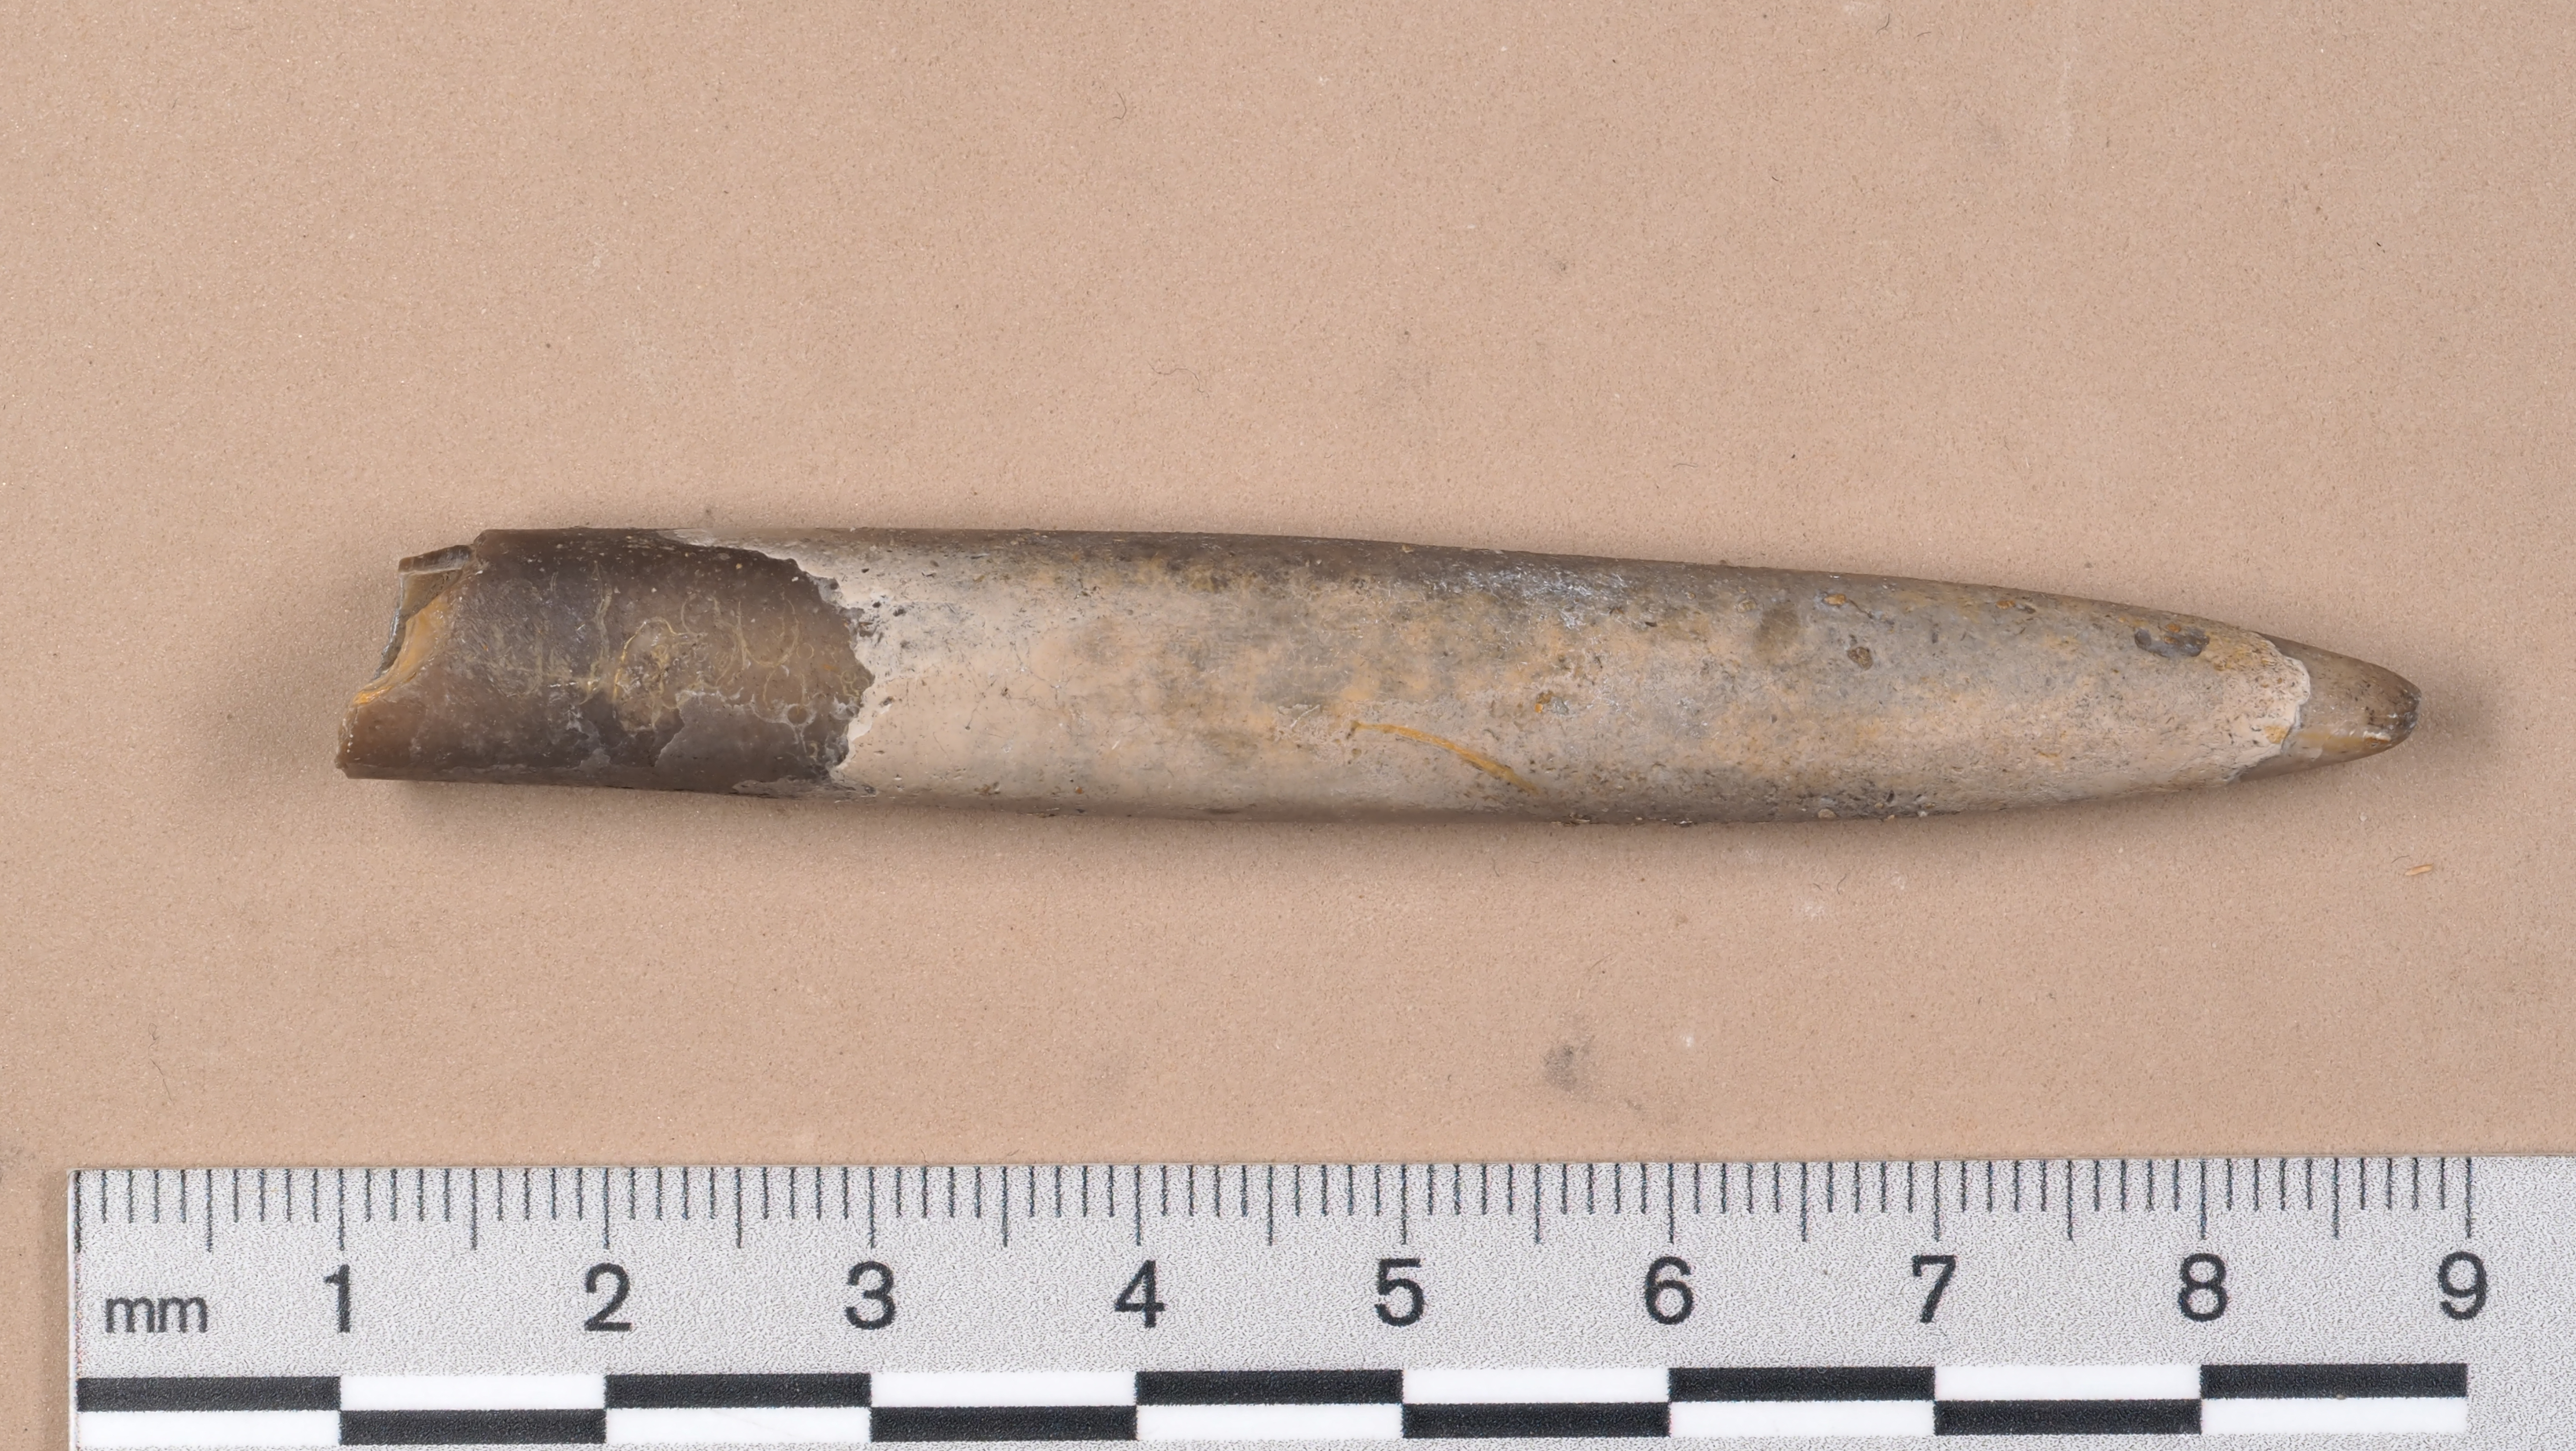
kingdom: Animalia
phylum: Mollusca
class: Cephalopoda
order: Belemnitida
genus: Gastrobelus
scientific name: Gastrobelus
